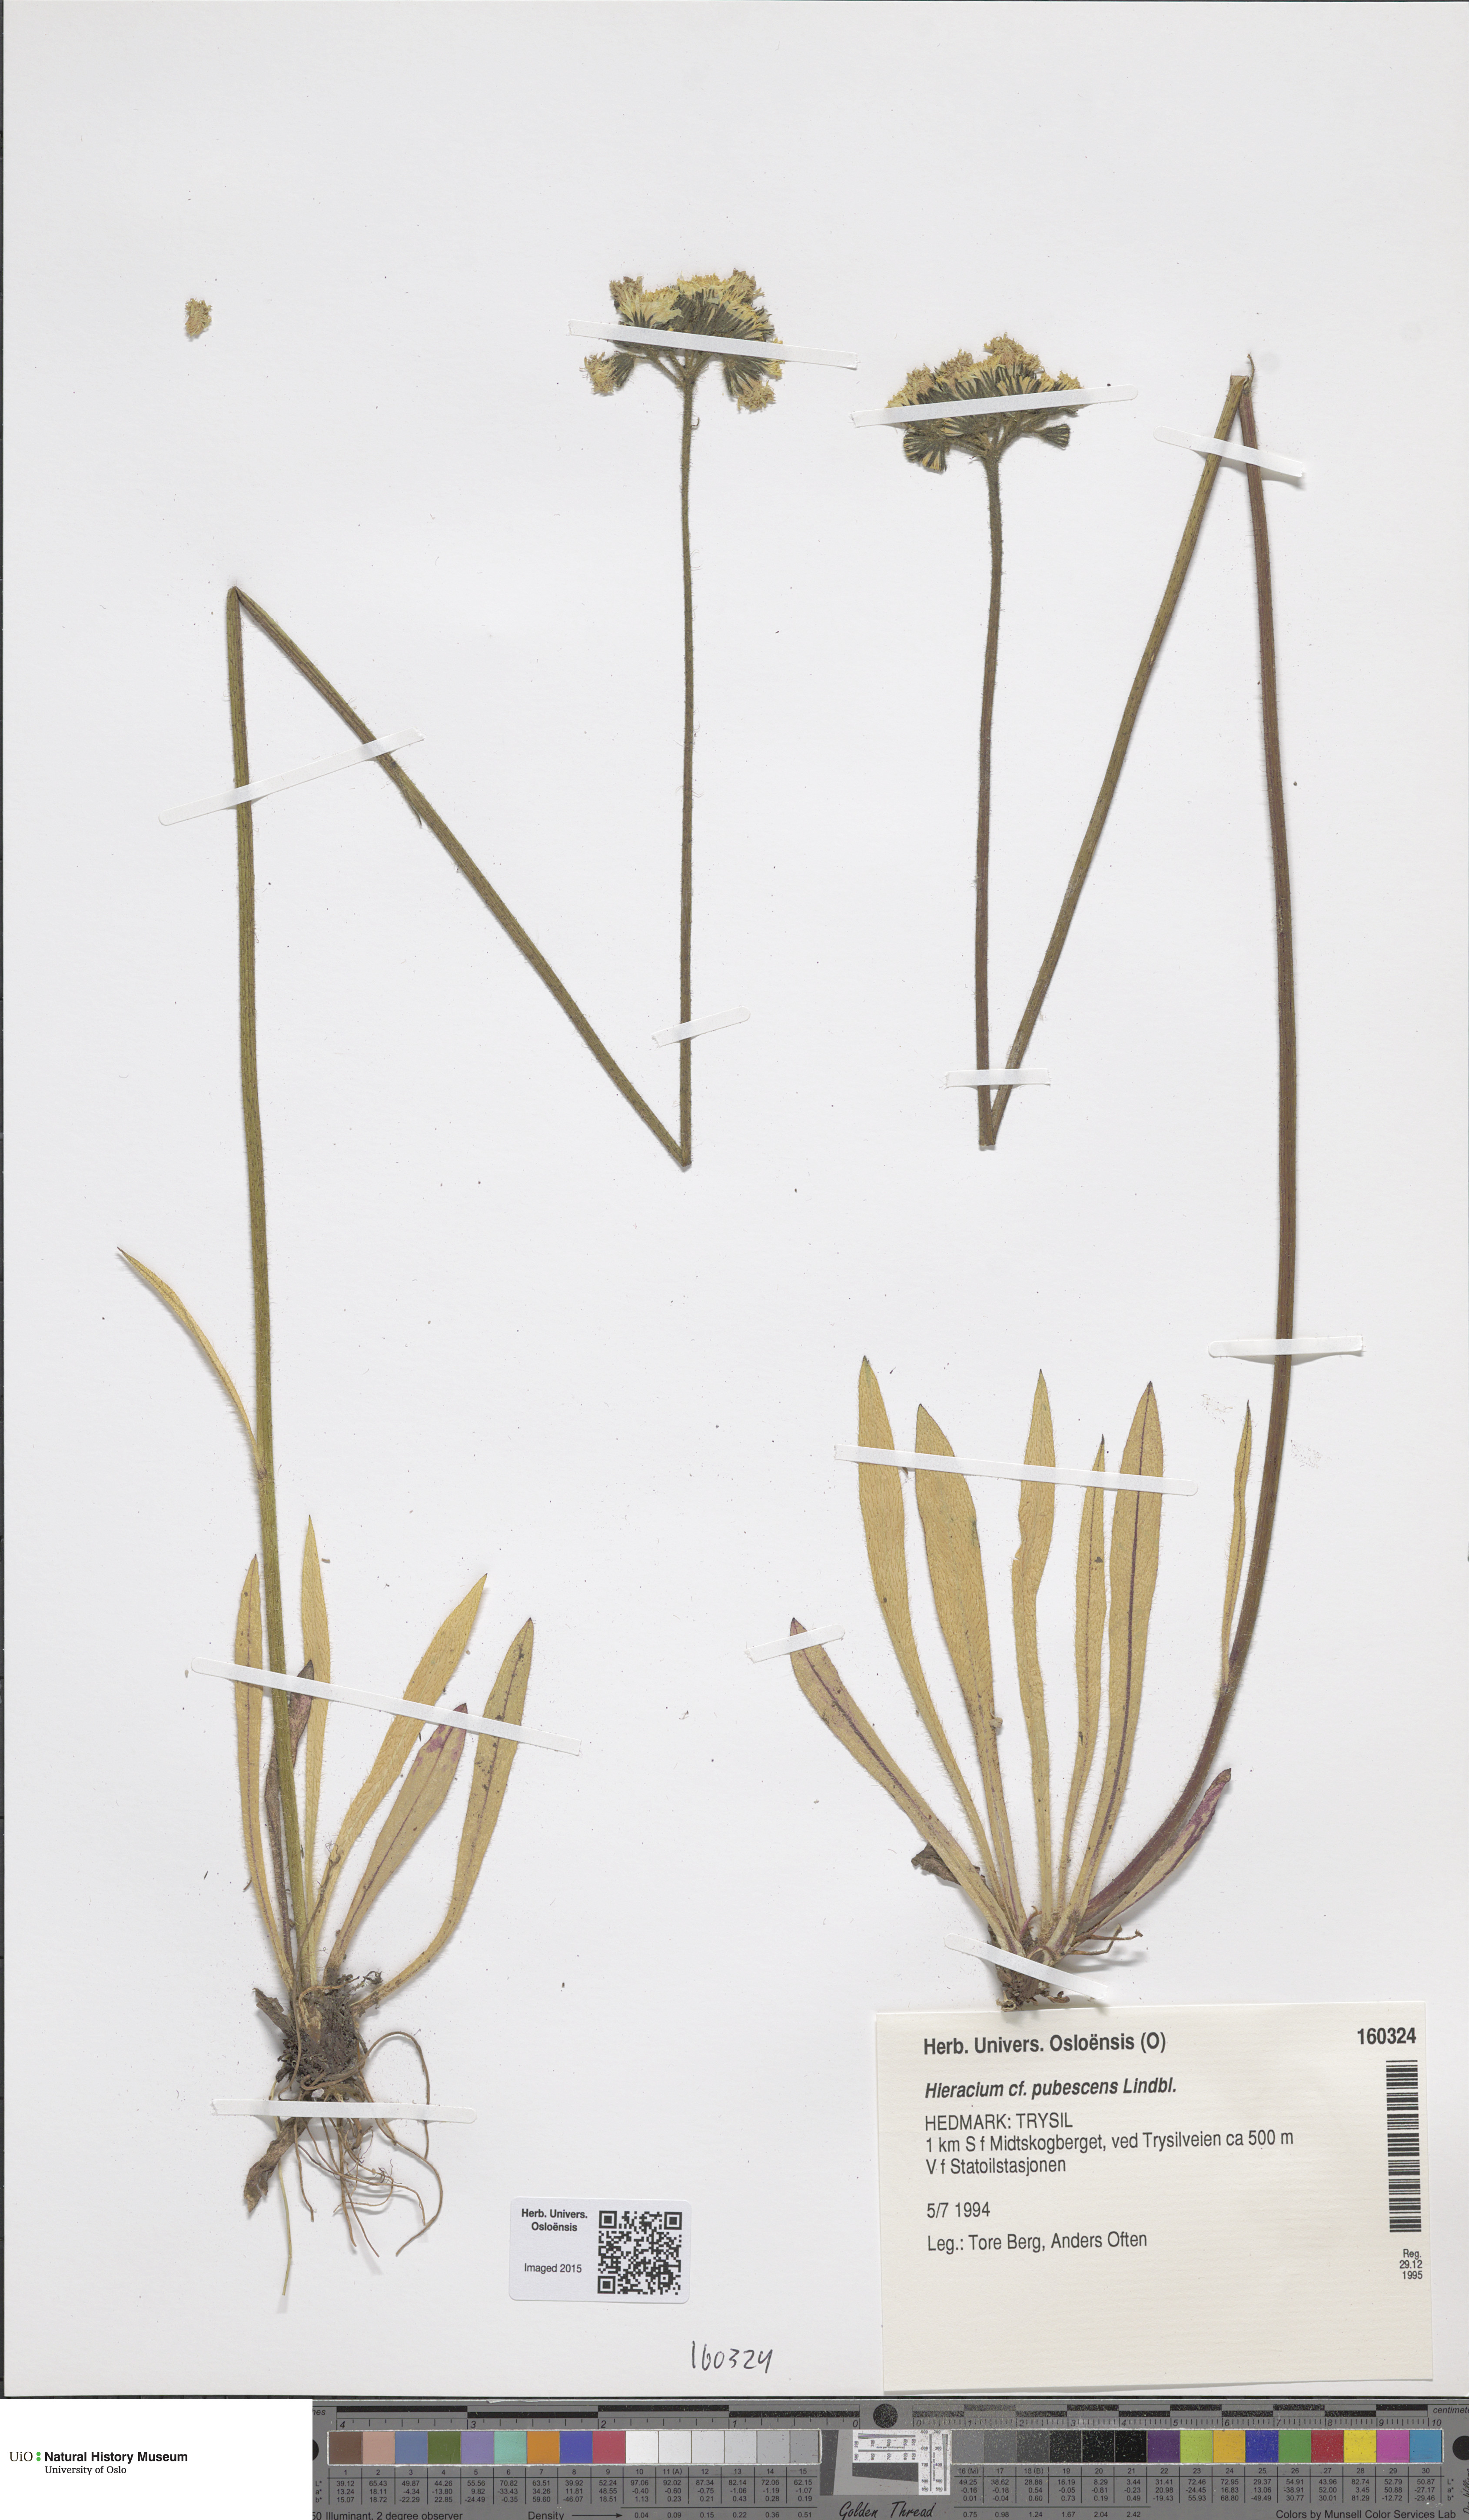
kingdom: Plantae
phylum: Tracheophyta
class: Magnoliopsida
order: Asterales
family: Asteraceae
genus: Pilosella
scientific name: Pilosella cymosa
